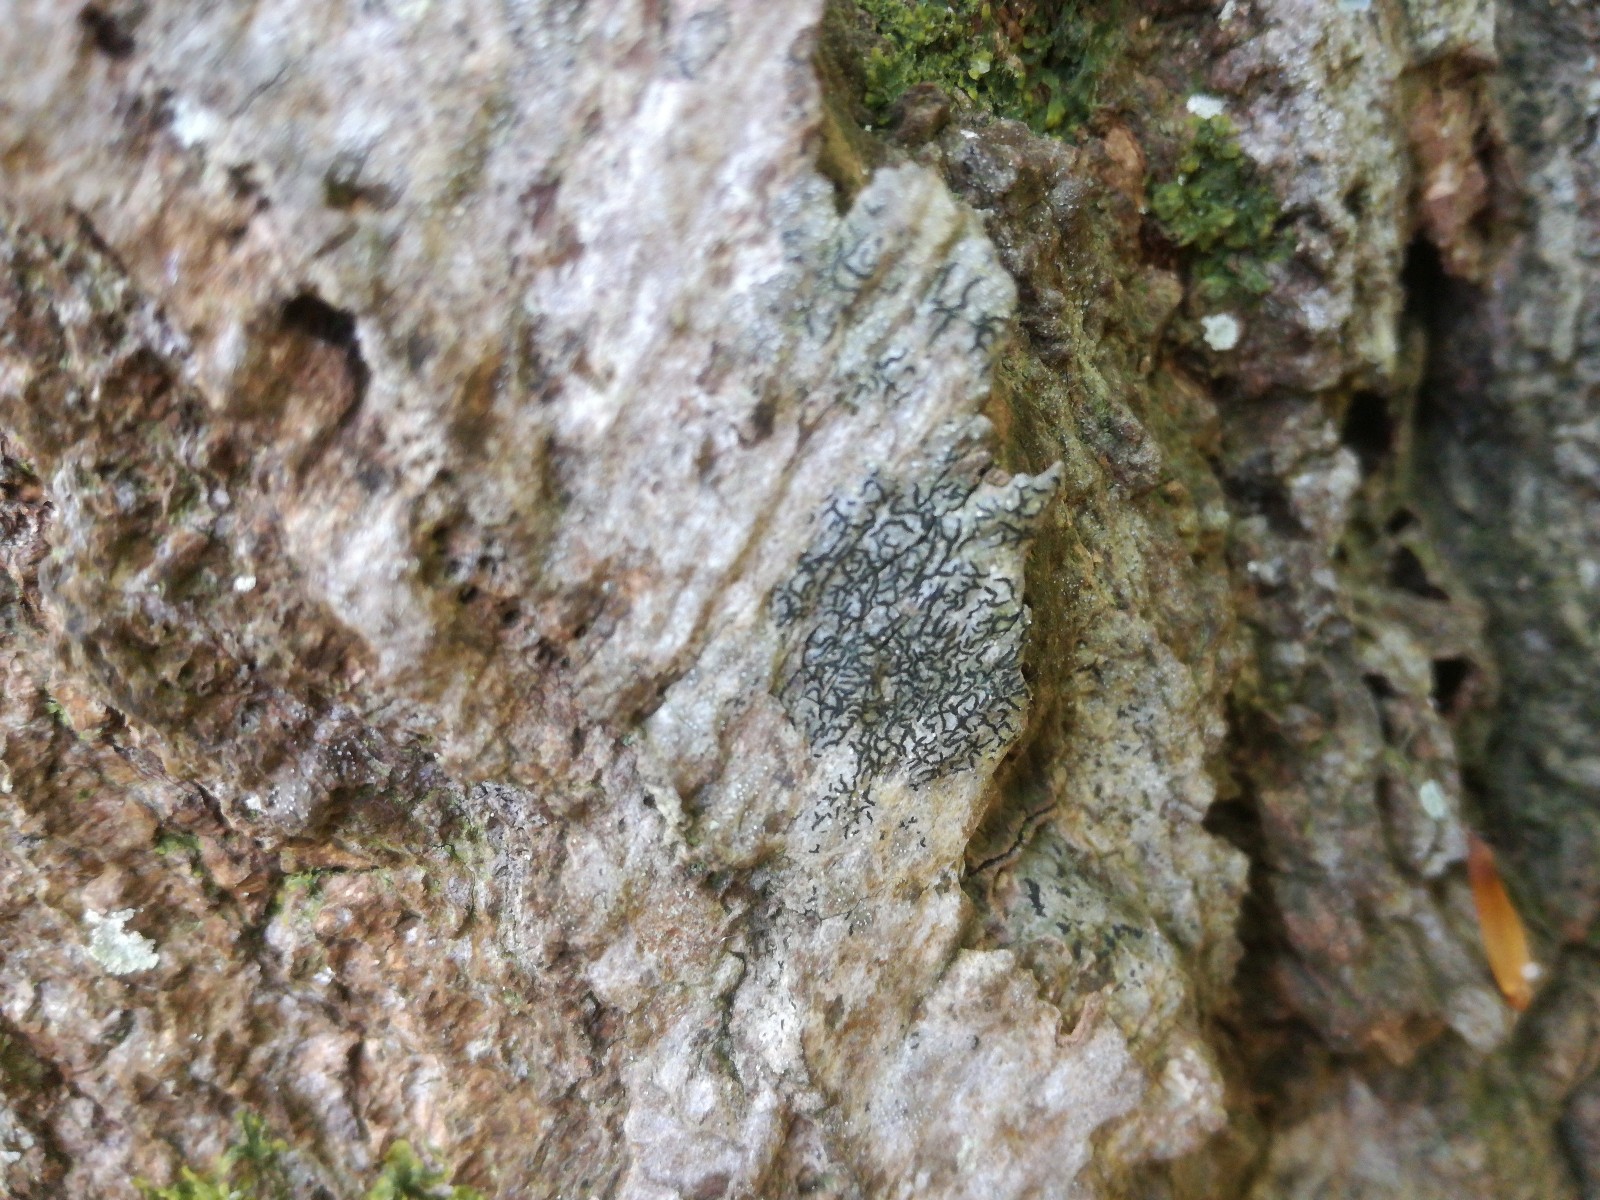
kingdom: Fungi
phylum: Ascomycota
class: Arthoniomycetes
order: Arthoniales
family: Arthoniaceae
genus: Arthonia
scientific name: Arthonia atra
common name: sort bogstavlav
